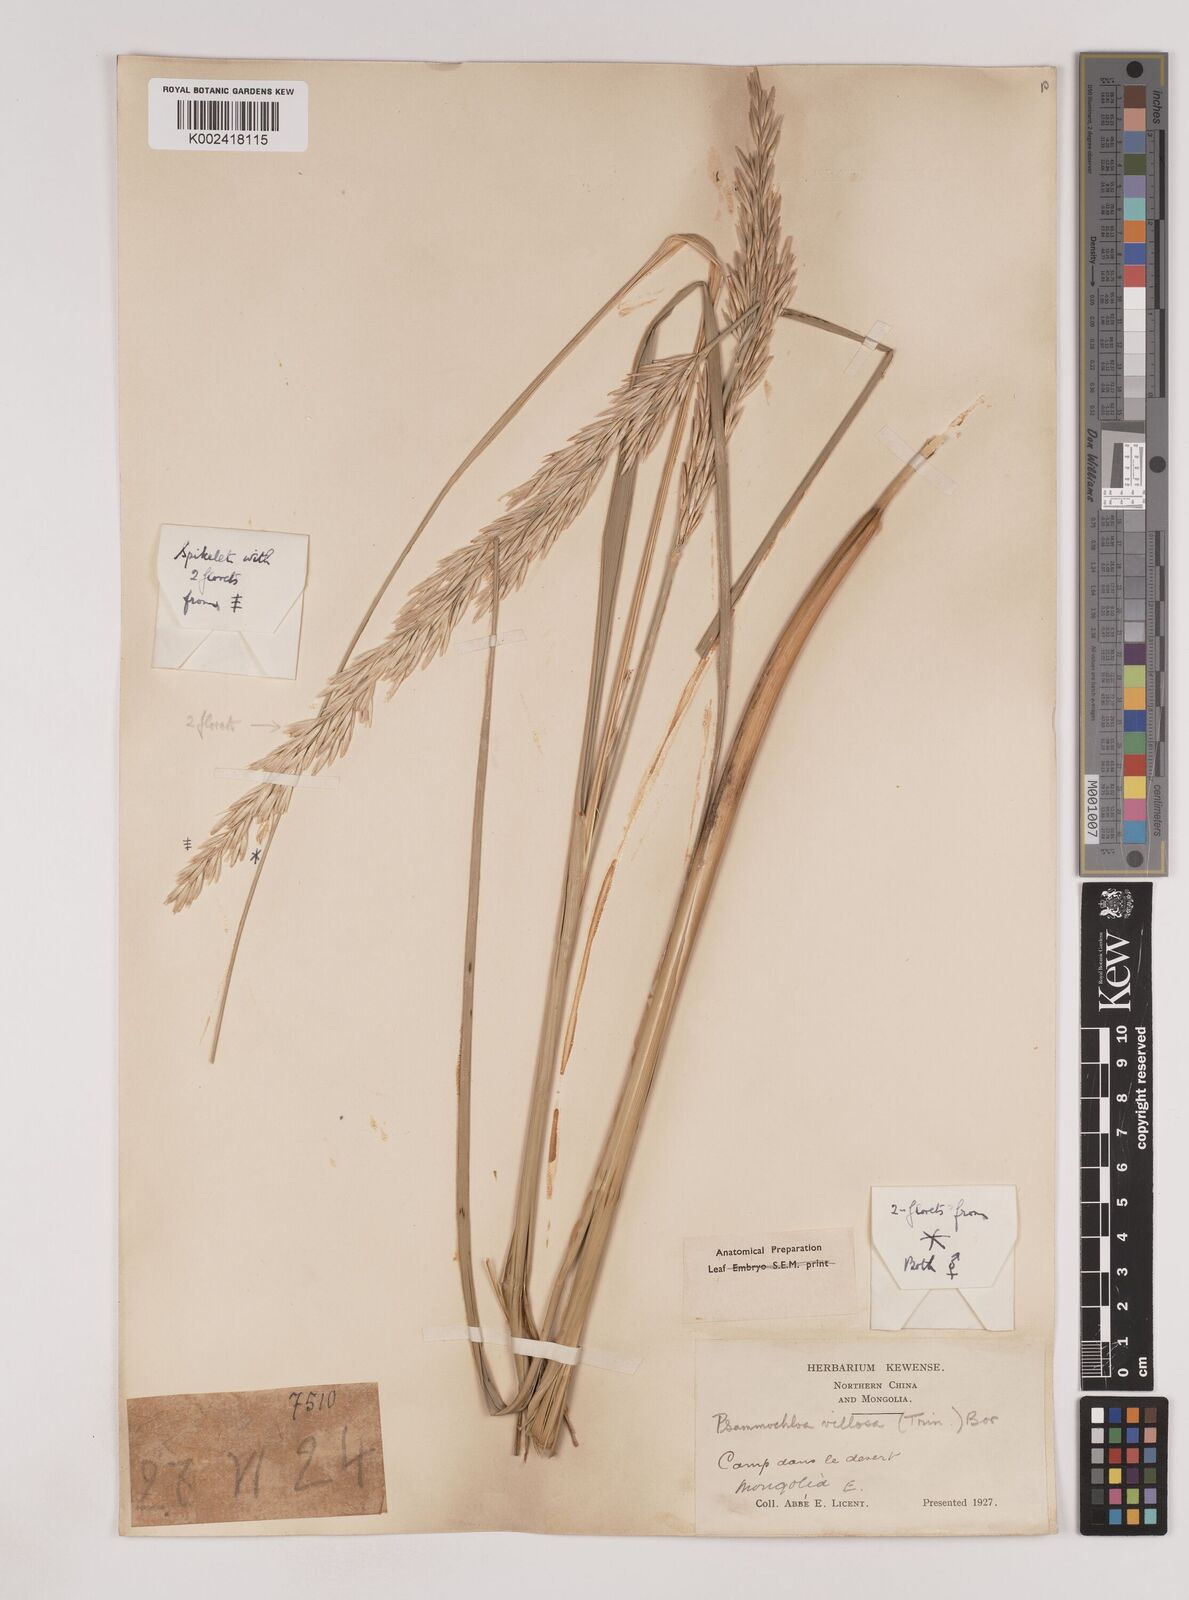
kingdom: Plantae
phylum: Tracheophyta
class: Liliopsida
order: Poales
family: Poaceae
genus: Psammochloa
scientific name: Psammochloa villosa
